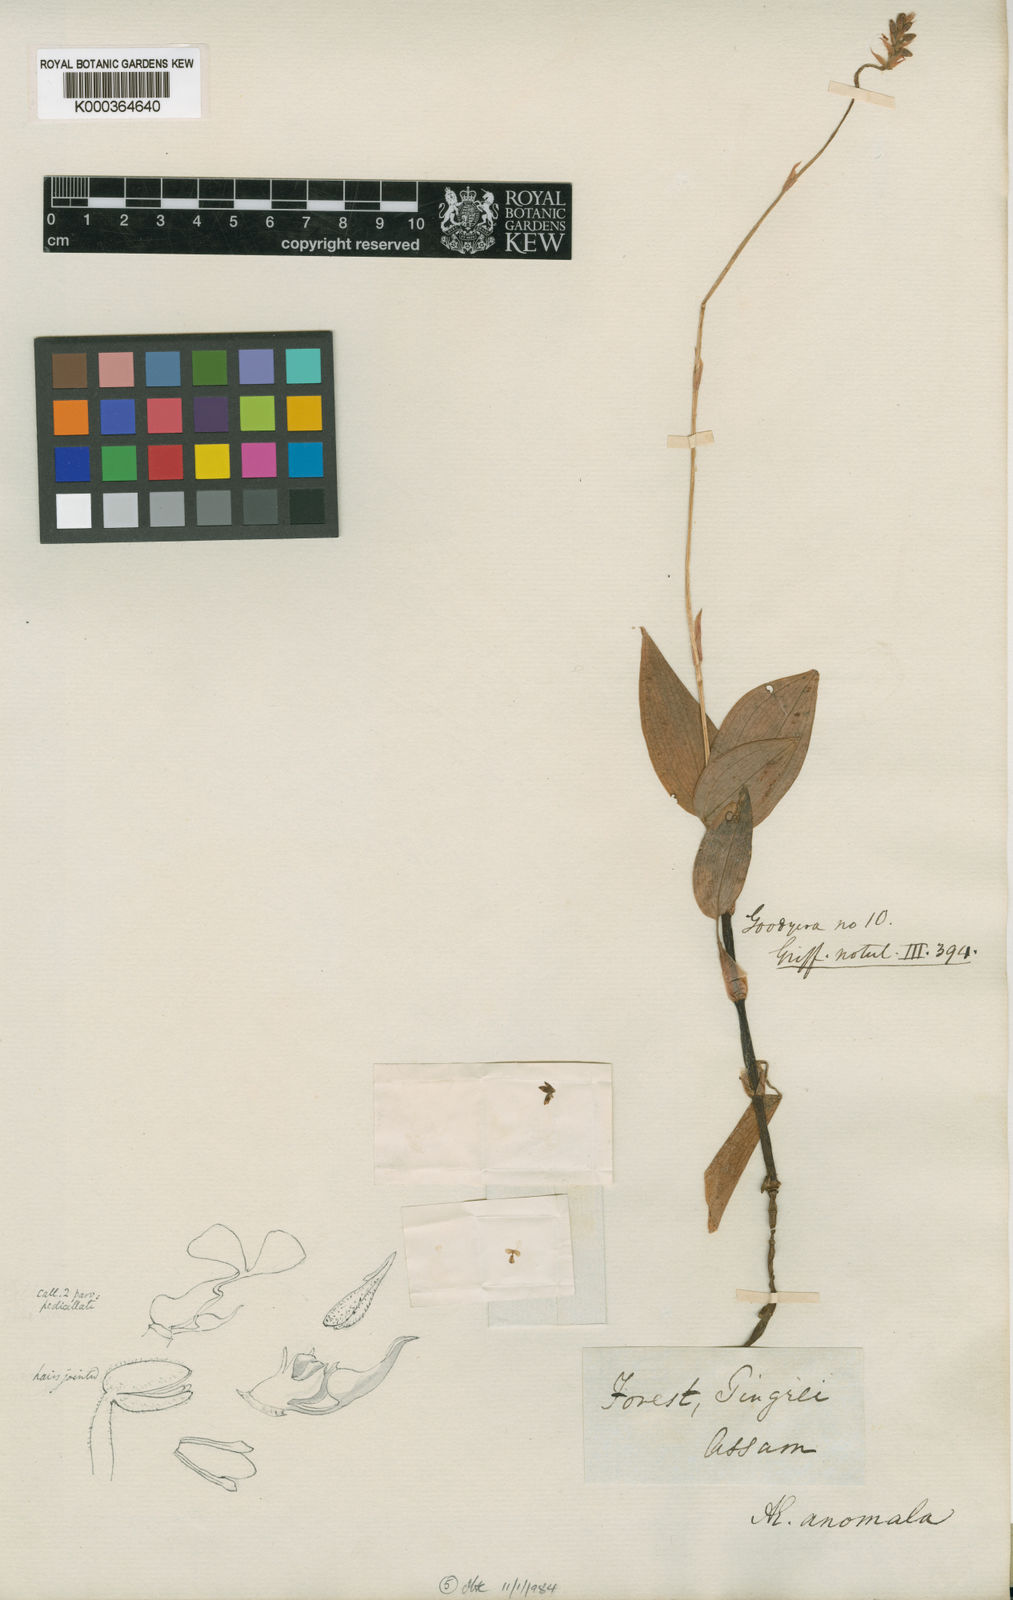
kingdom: Plantae
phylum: Tracheophyta
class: Liliopsida
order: Asparagales
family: Orchidaceae
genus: Hetaeria
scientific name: Hetaeria anomala
